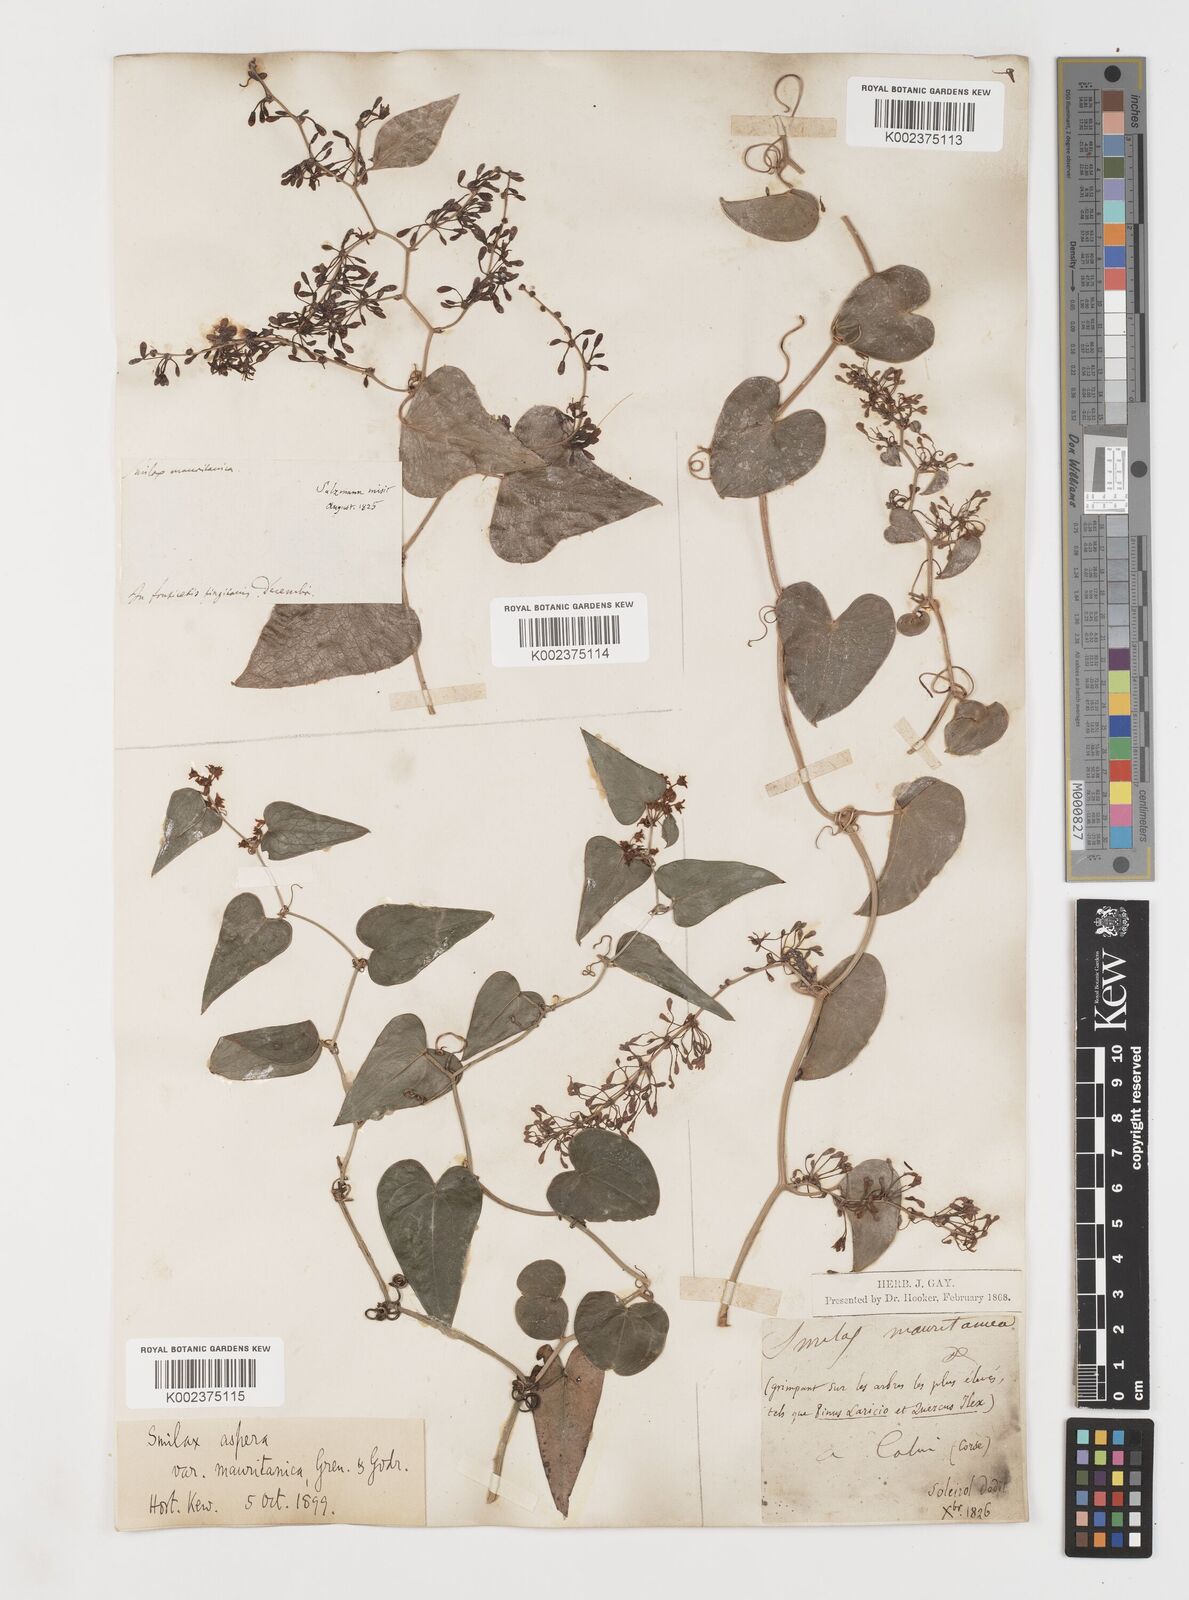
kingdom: Plantae
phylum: Tracheophyta
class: Liliopsida
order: Liliales
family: Smilacaceae
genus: Smilax
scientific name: Smilax aspera
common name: Common smilax
